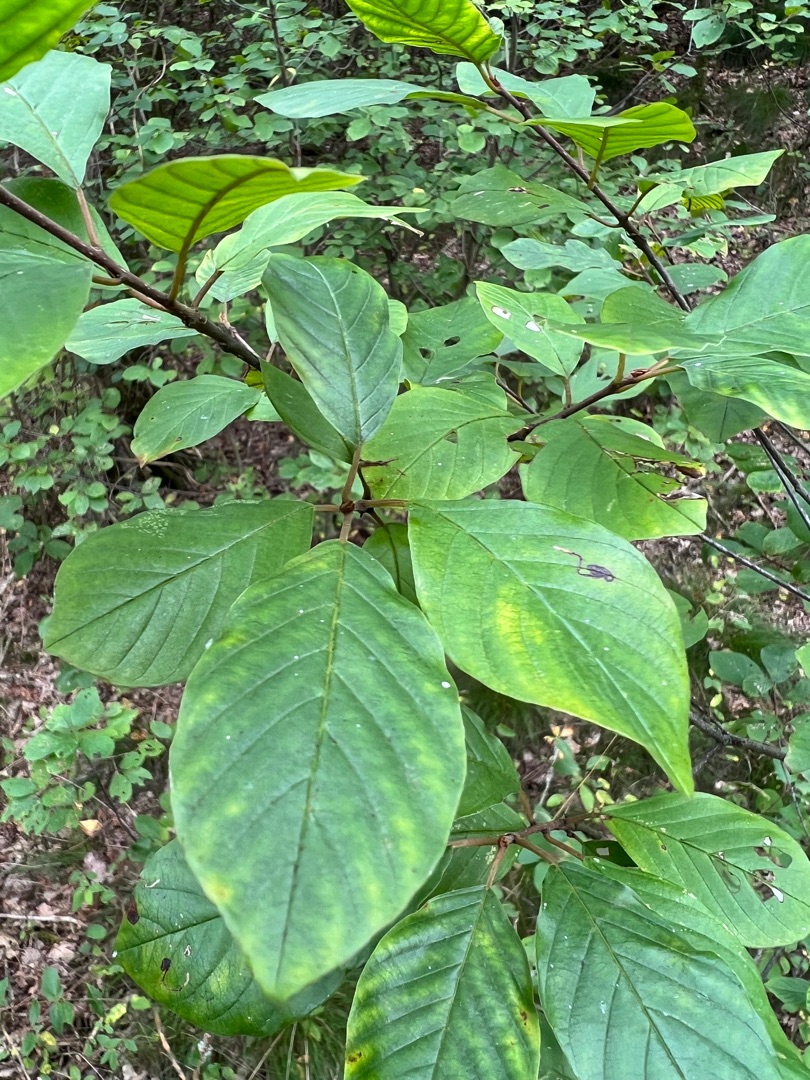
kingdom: Plantae
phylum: Tracheophyta
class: Magnoliopsida
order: Rosales
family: Rhamnaceae
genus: Frangula
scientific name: Frangula alnus
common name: Tørst
